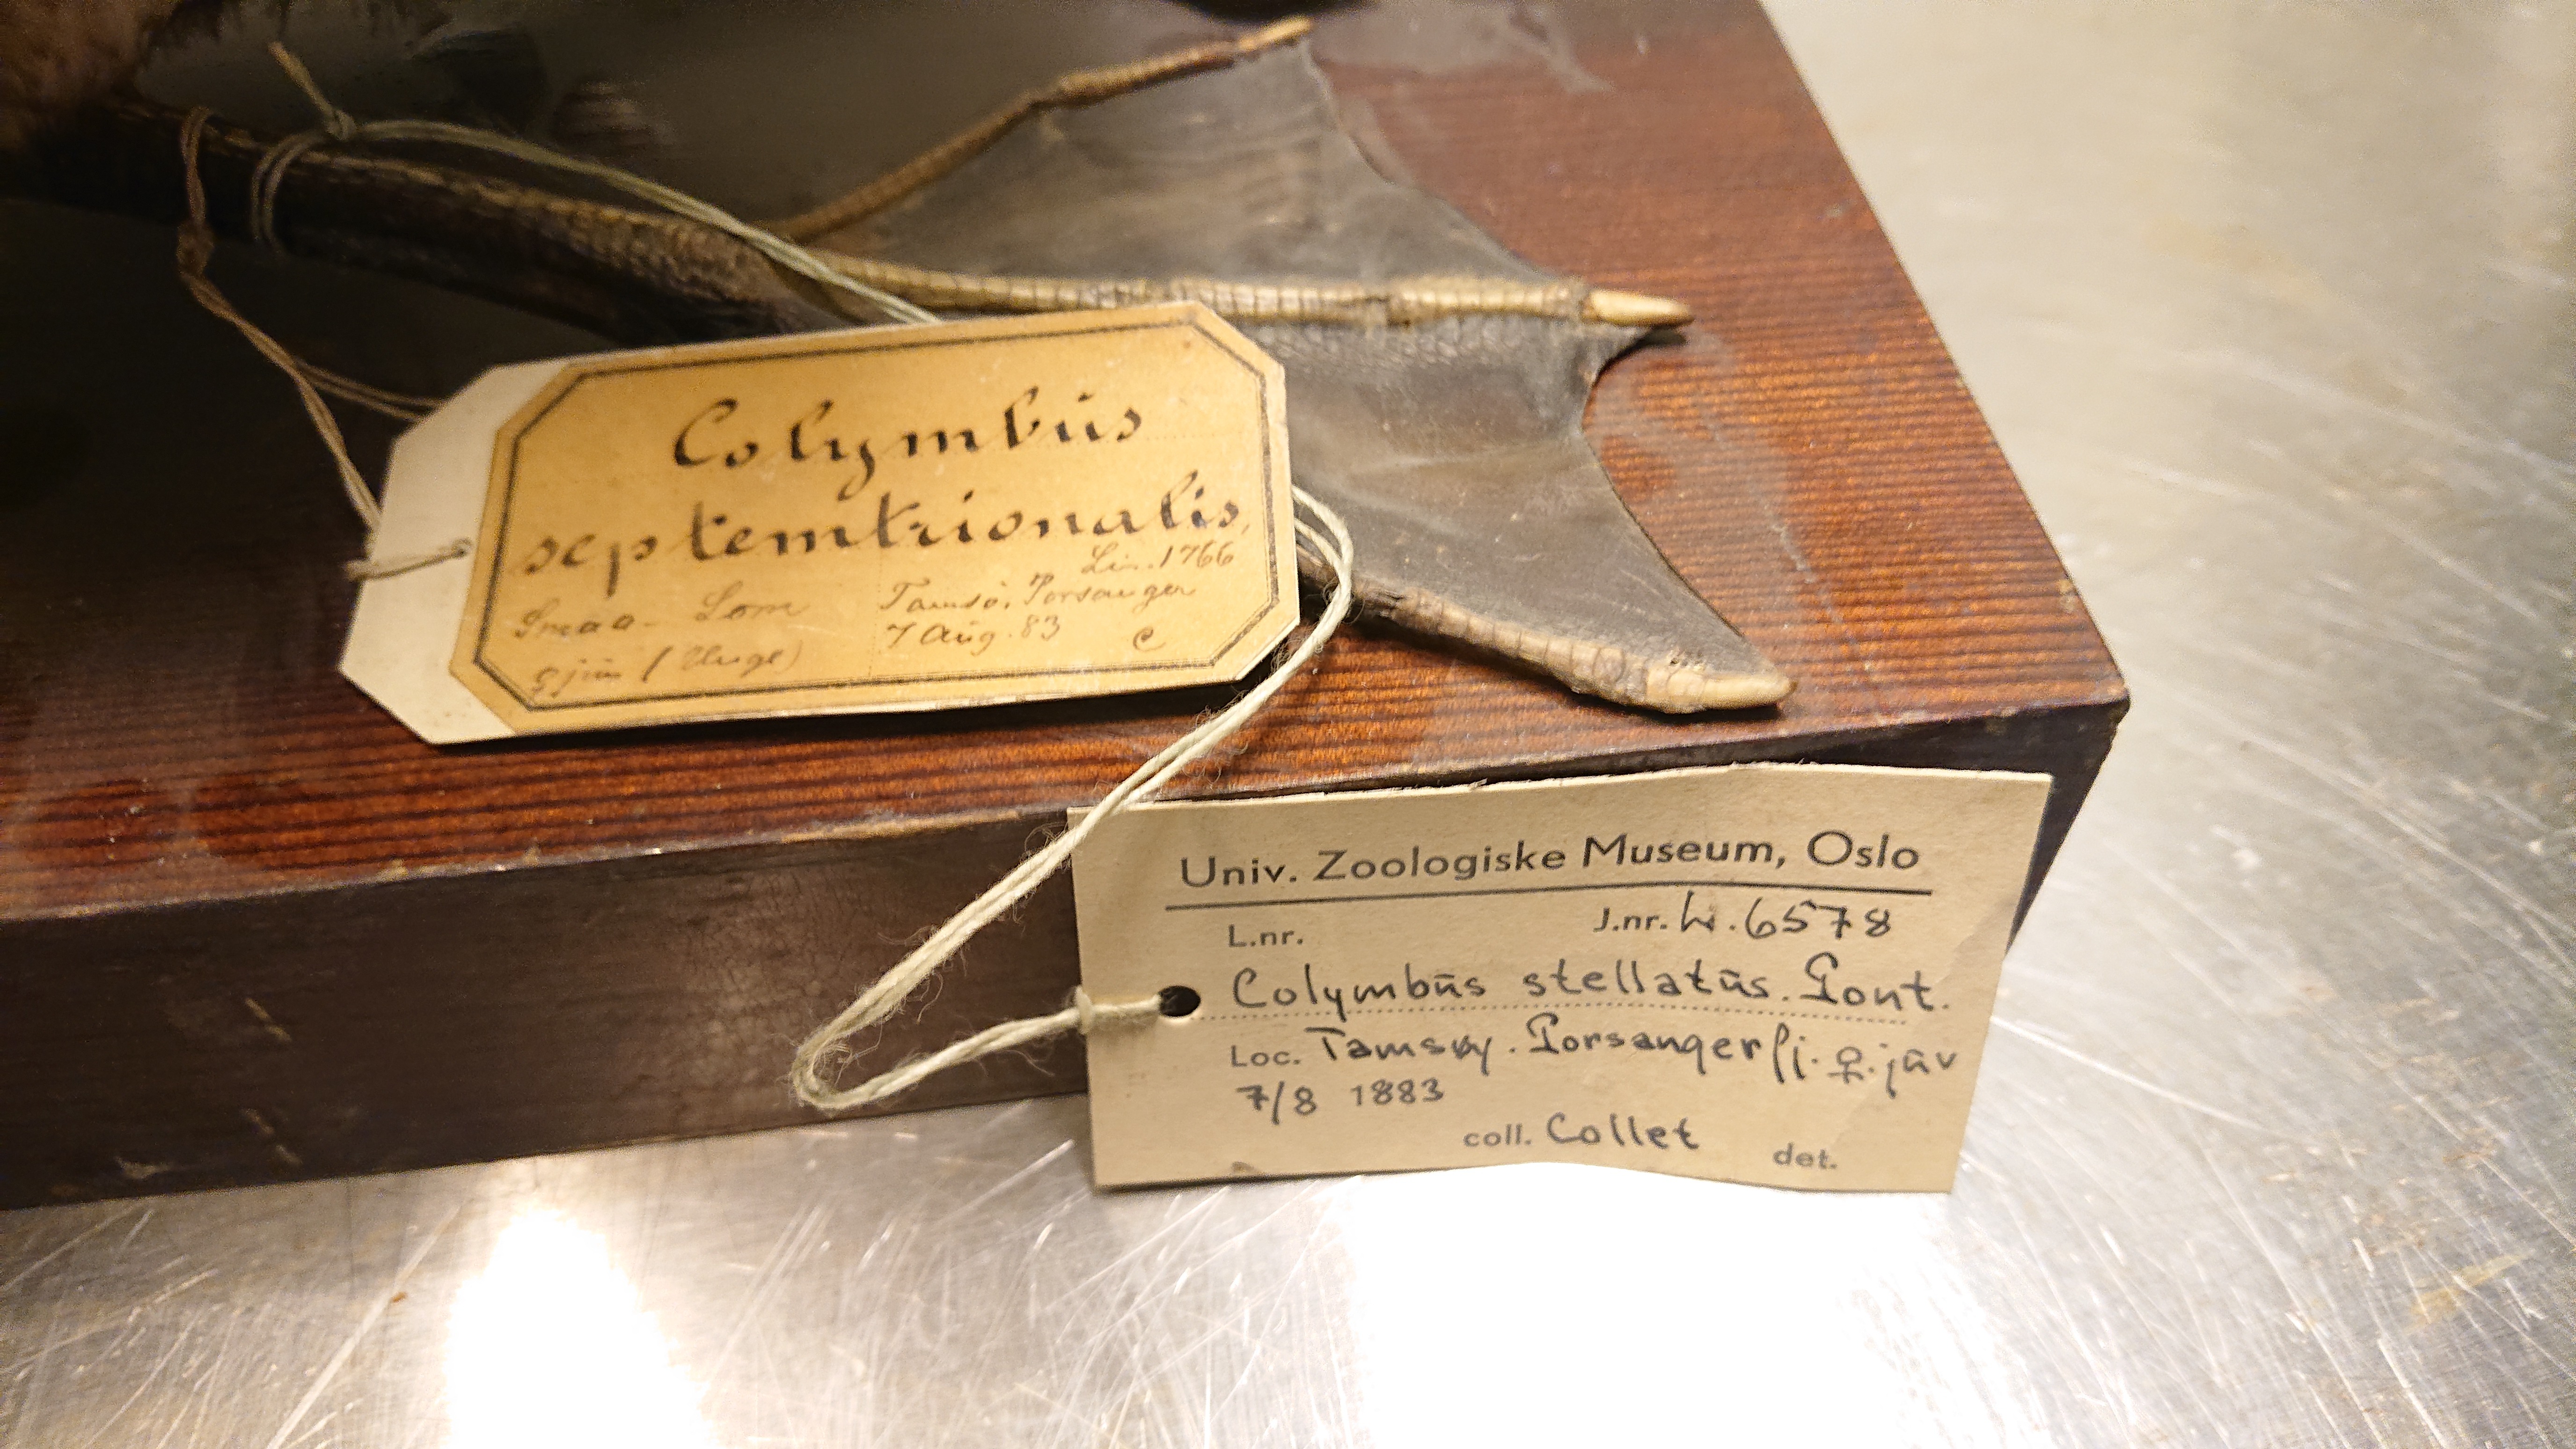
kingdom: Animalia
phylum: Chordata
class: Aves
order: Gaviiformes
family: Gaviidae
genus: Gavia
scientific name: Gavia stellata
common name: Red-throated loon
